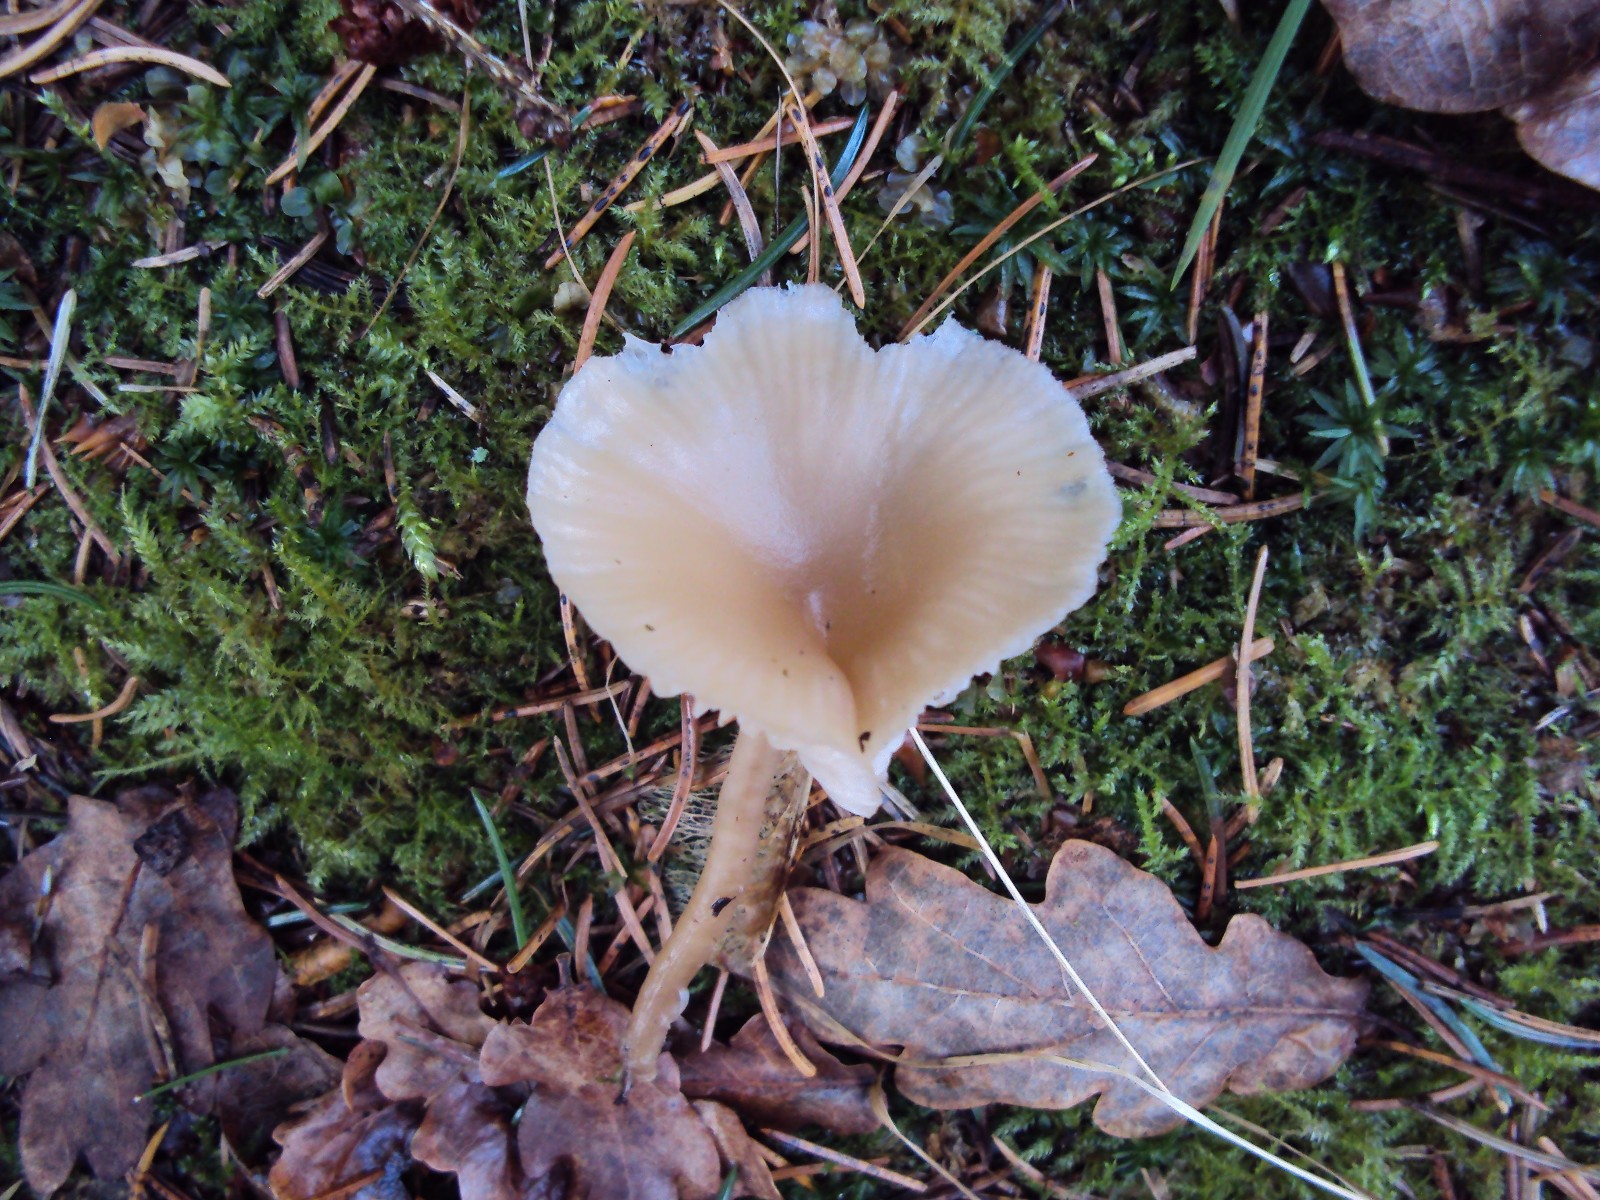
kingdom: Fungi
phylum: Basidiomycota
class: Agaricomycetes
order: Agaricales
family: Tricholomataceae
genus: Clitocybe
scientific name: Clitocybe fragrans
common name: vellugtende tragthat
